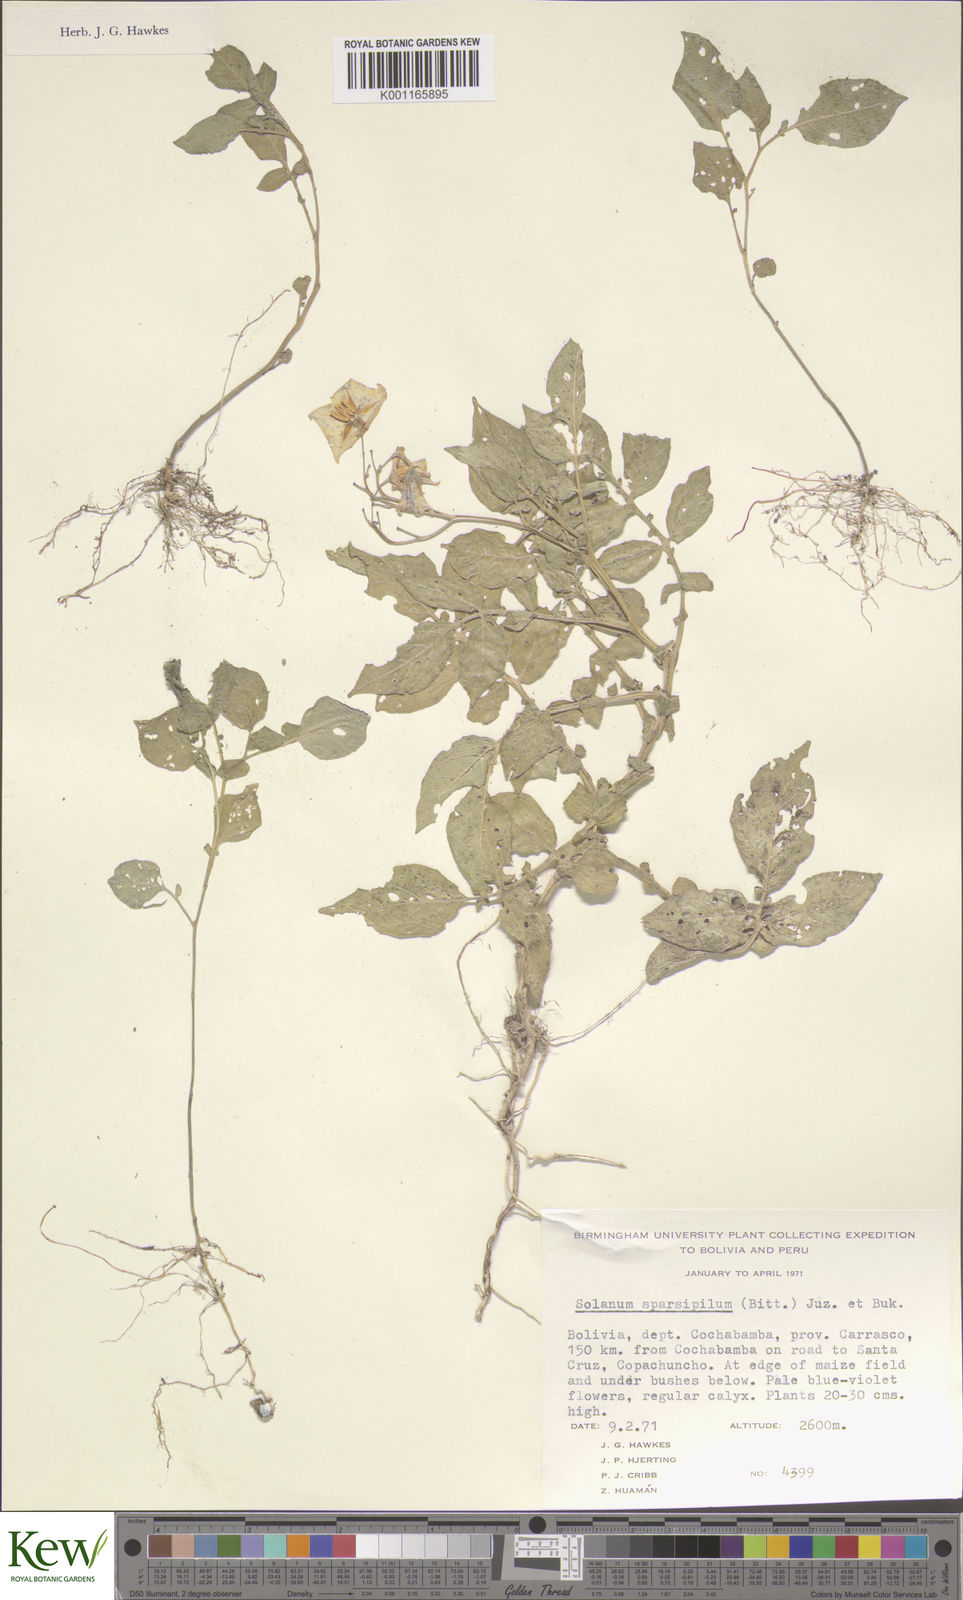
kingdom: Plantae
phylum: Tracheophyta
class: Magnoliopsida
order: Solanales
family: Solanaceae
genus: Solanum
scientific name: Solanum brevicaule
